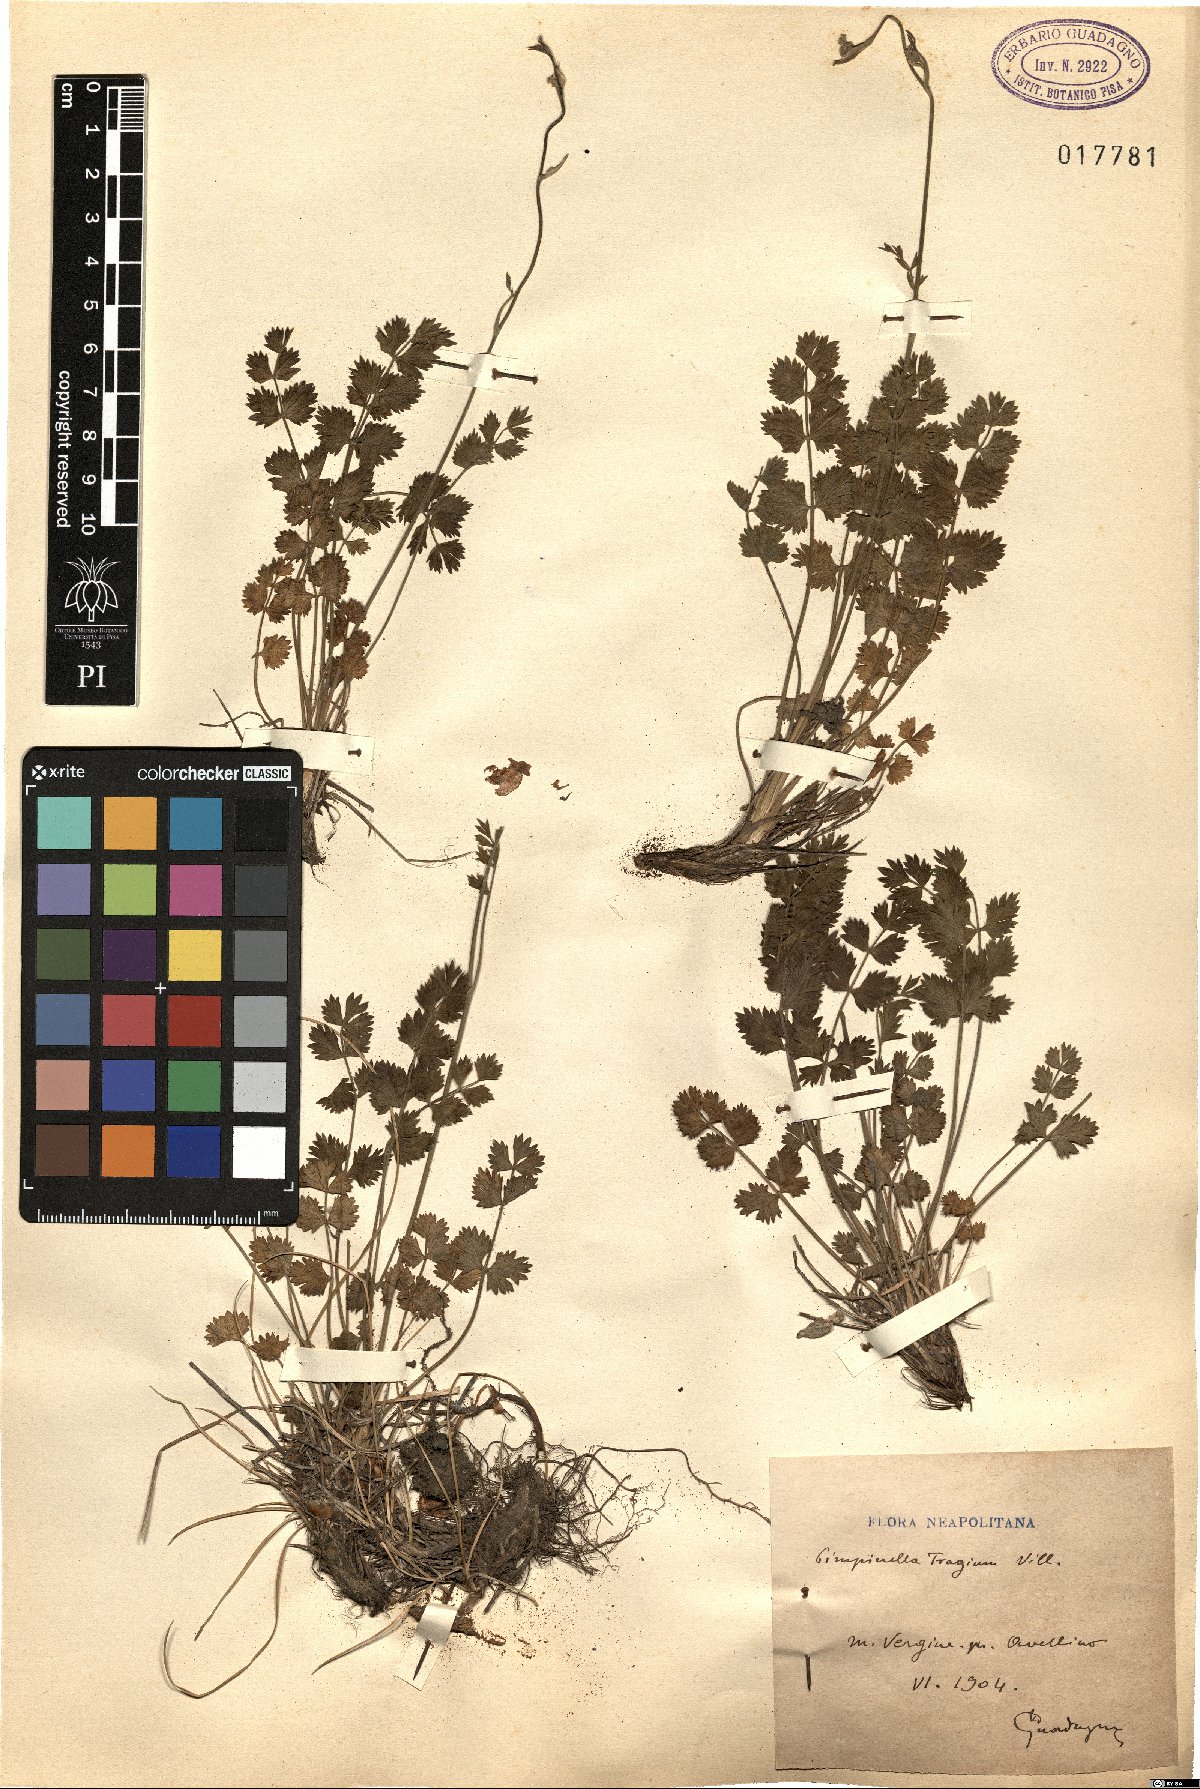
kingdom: Plantae
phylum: Tracheophyta
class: Magnoliopsida
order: Apiales
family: Apiaceae
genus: Pimpinella
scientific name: Pimpinella tragium
